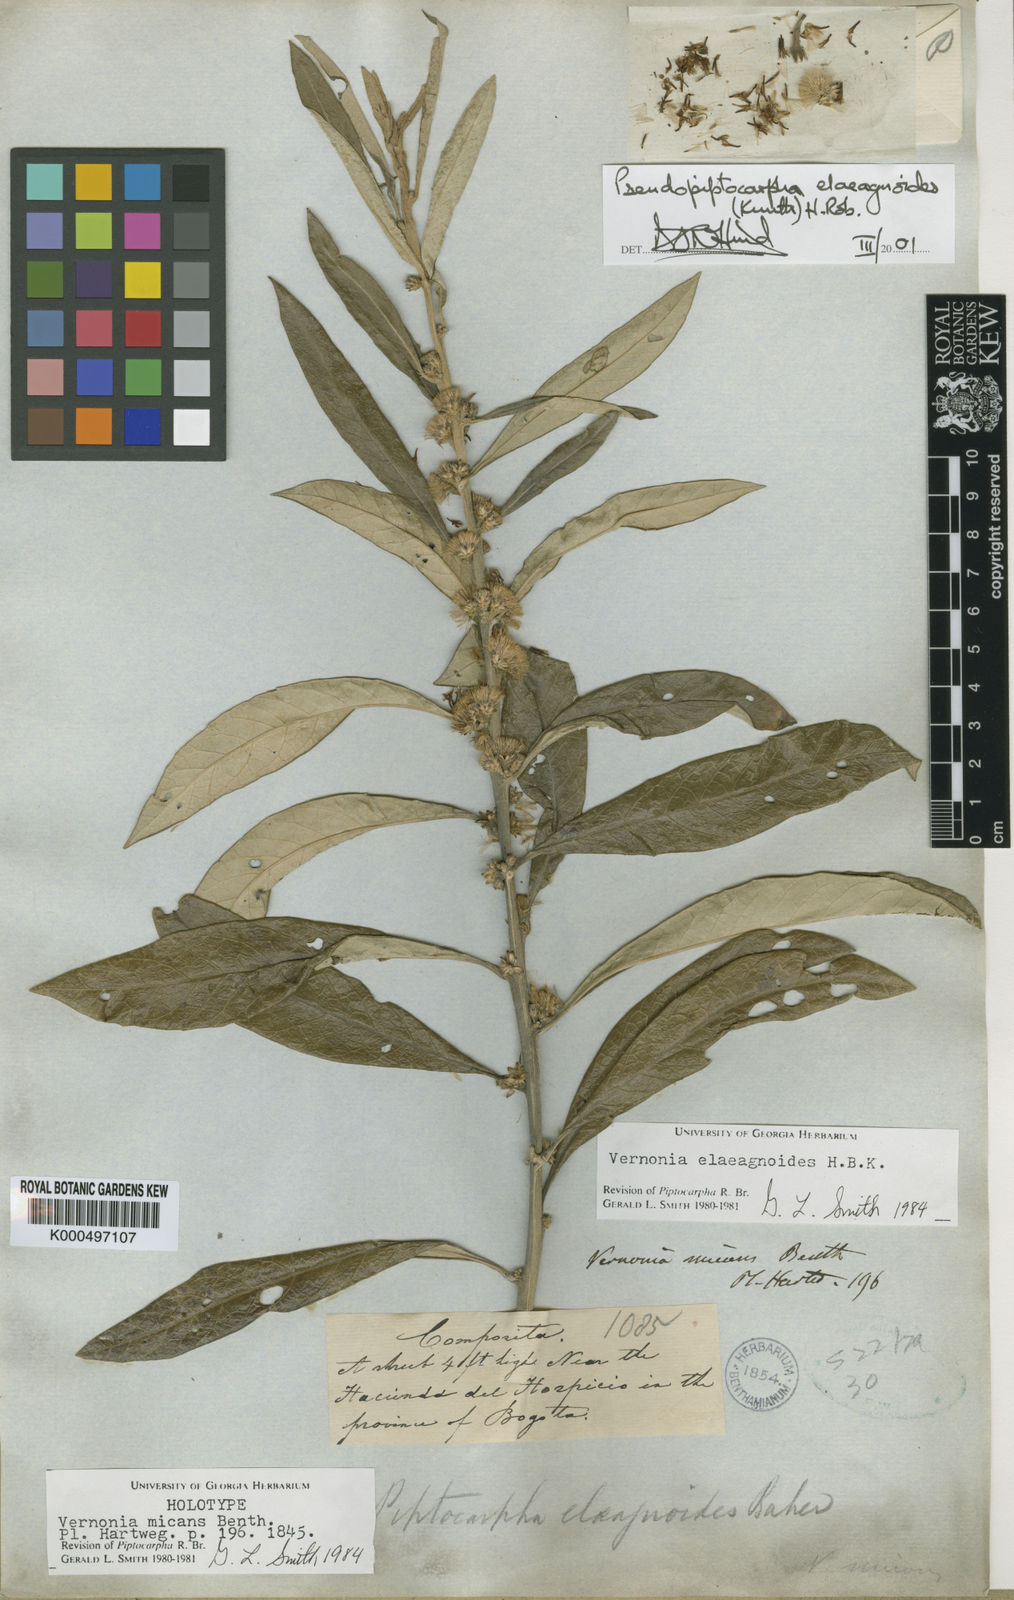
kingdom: Plantae
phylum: Tracheophyta
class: Magnoliopsida
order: Asterales
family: Asteraceae
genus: Pseudopiptocarpha
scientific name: Pseudopiptocarpha elaeagnoides
